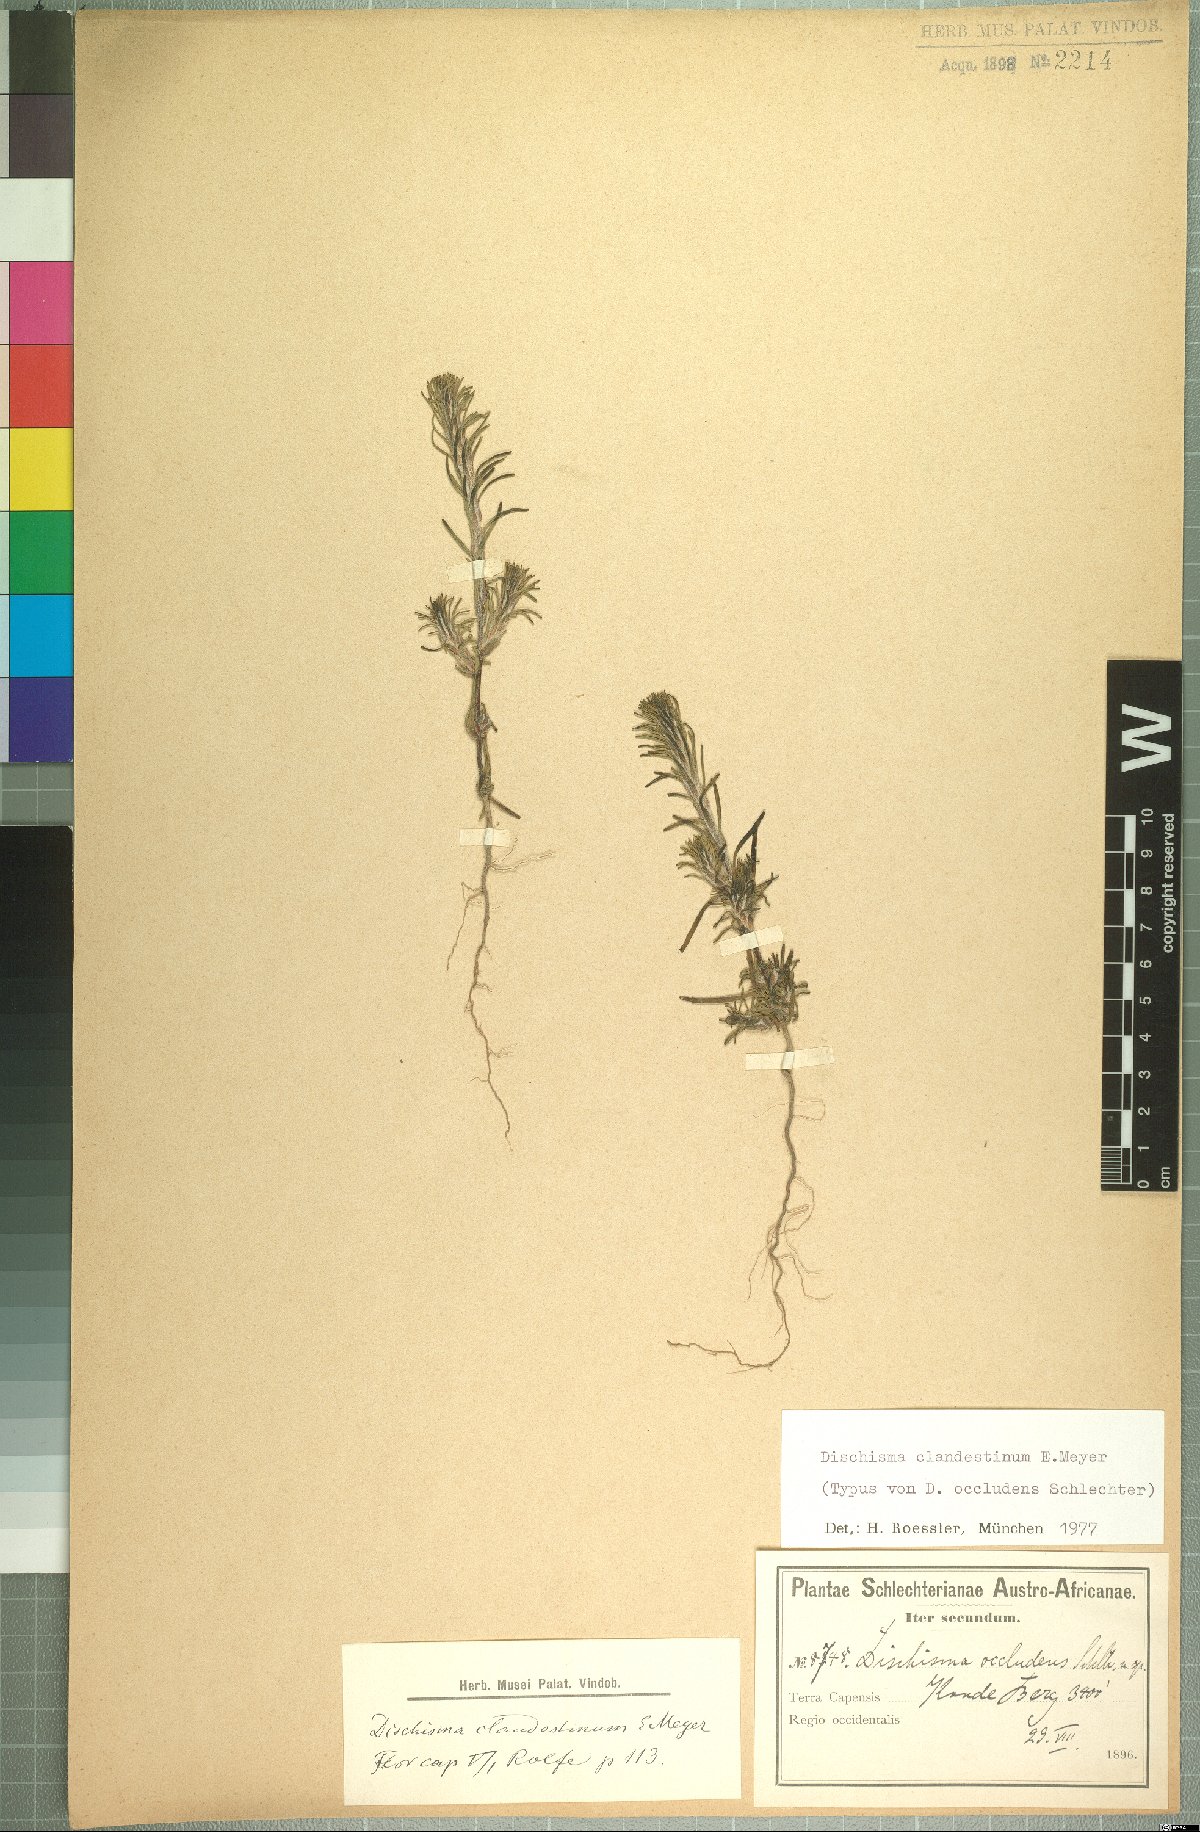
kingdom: Plantae
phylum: Tracheophyta
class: Magnoliopsida
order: Lamiales
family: Scrophulariaceae
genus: Dischisma
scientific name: Dischisma clandestinum
